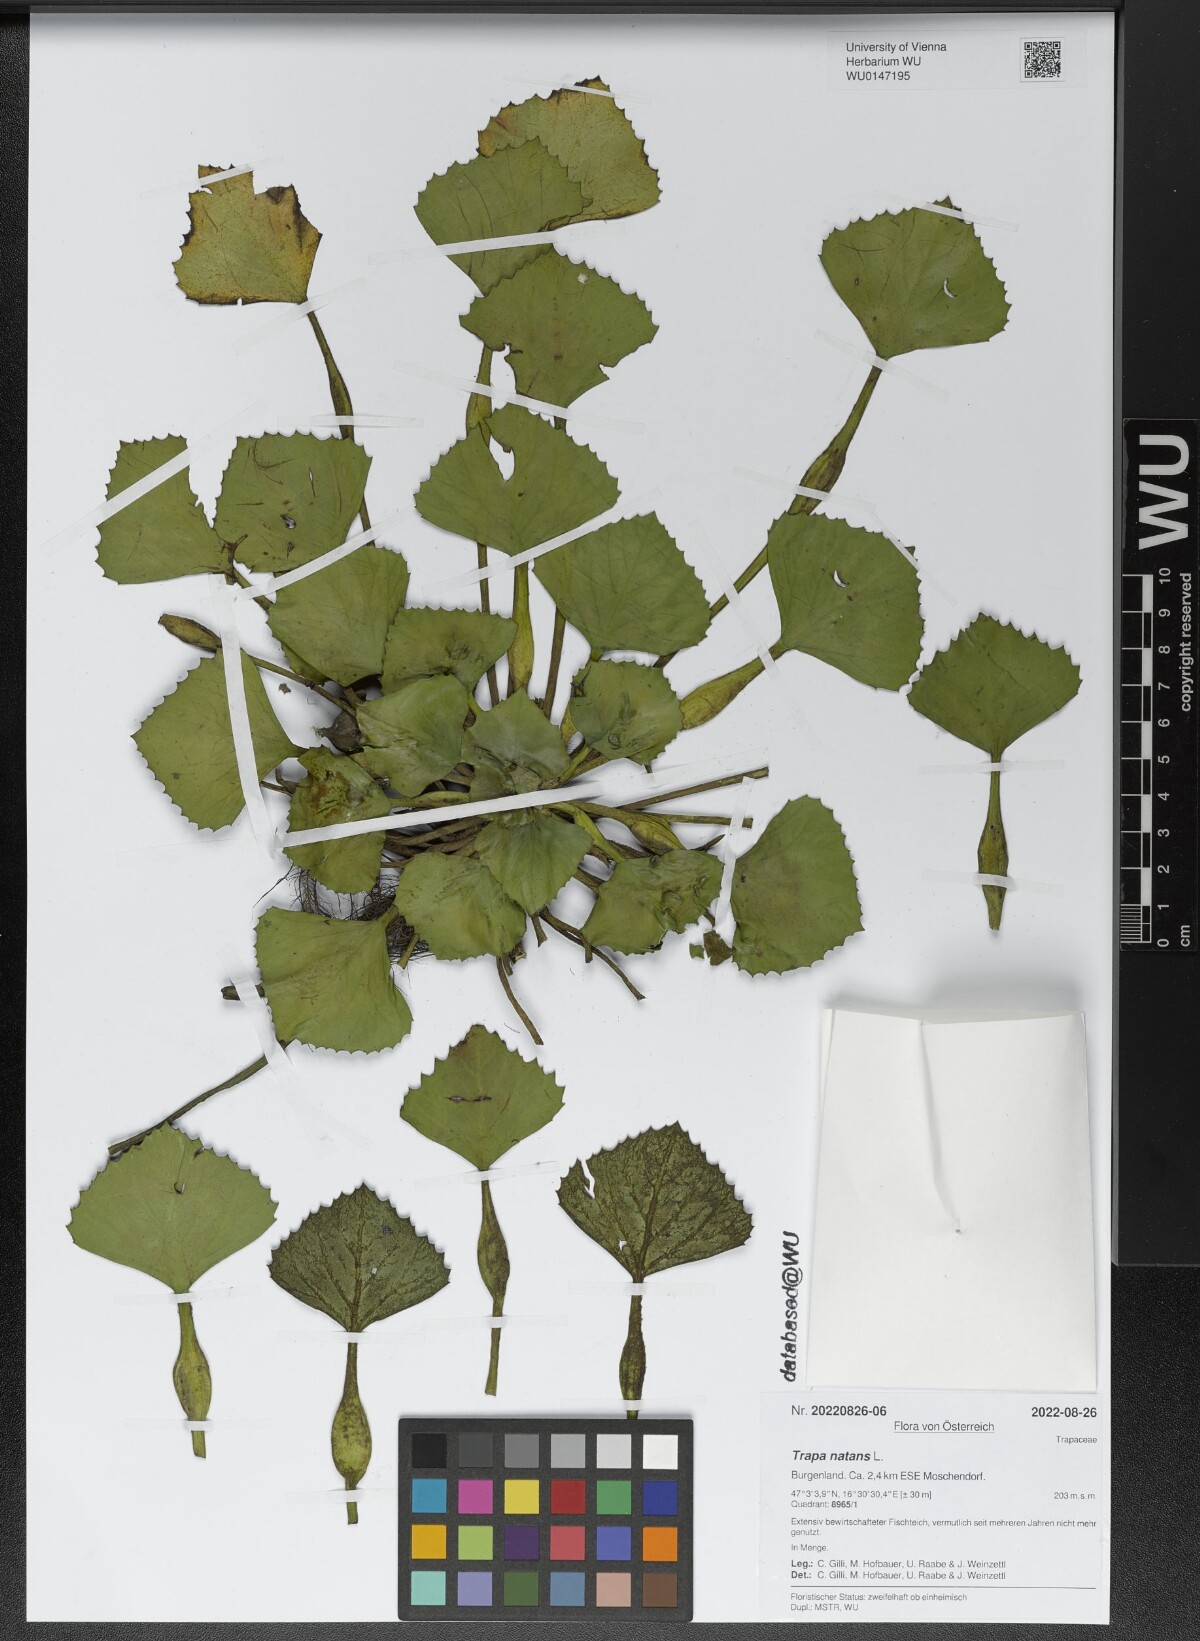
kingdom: Plantae
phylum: Tracheophyta
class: Magnoliopsida
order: Myrtales
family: Lythraceae
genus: Trapa
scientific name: Trapa natans
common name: Water chestnut
